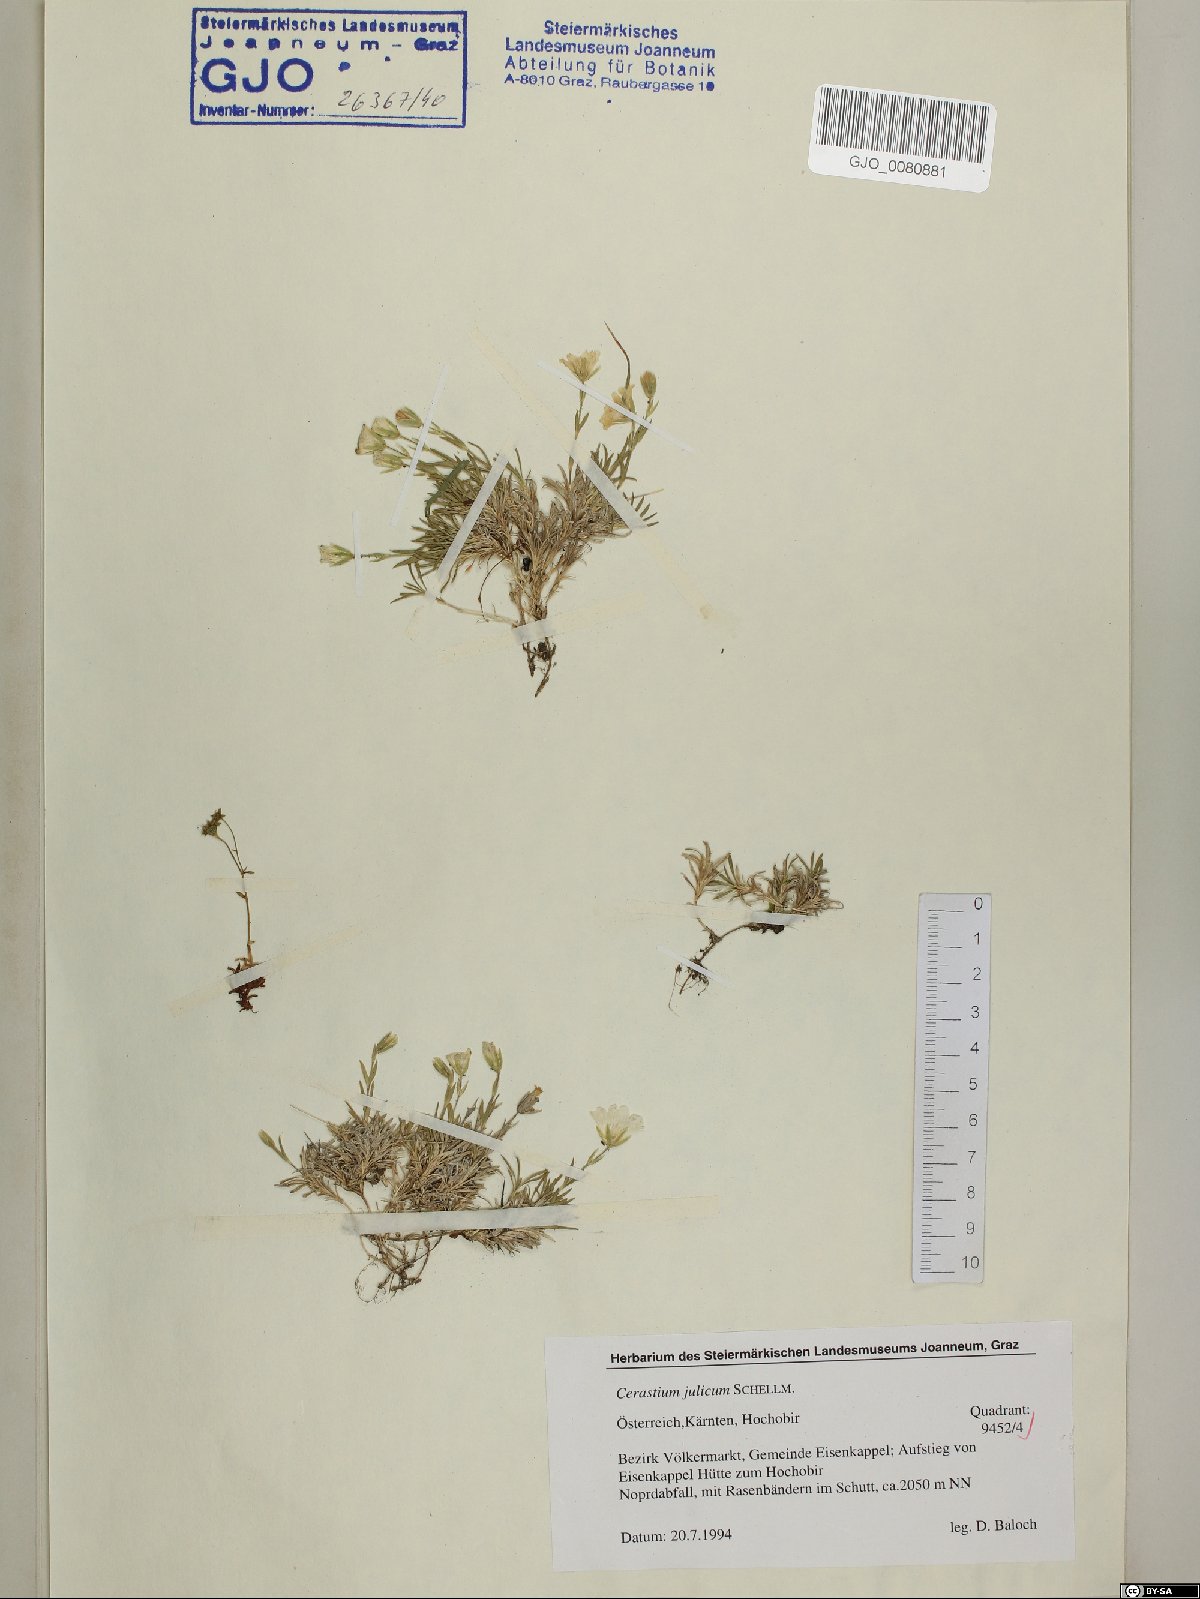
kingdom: Plantae
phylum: Tracheophyta
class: Magnoliopsida
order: Caryophyllales
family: Caryophyllaceae
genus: Cerastium
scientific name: Cerastium julicum
